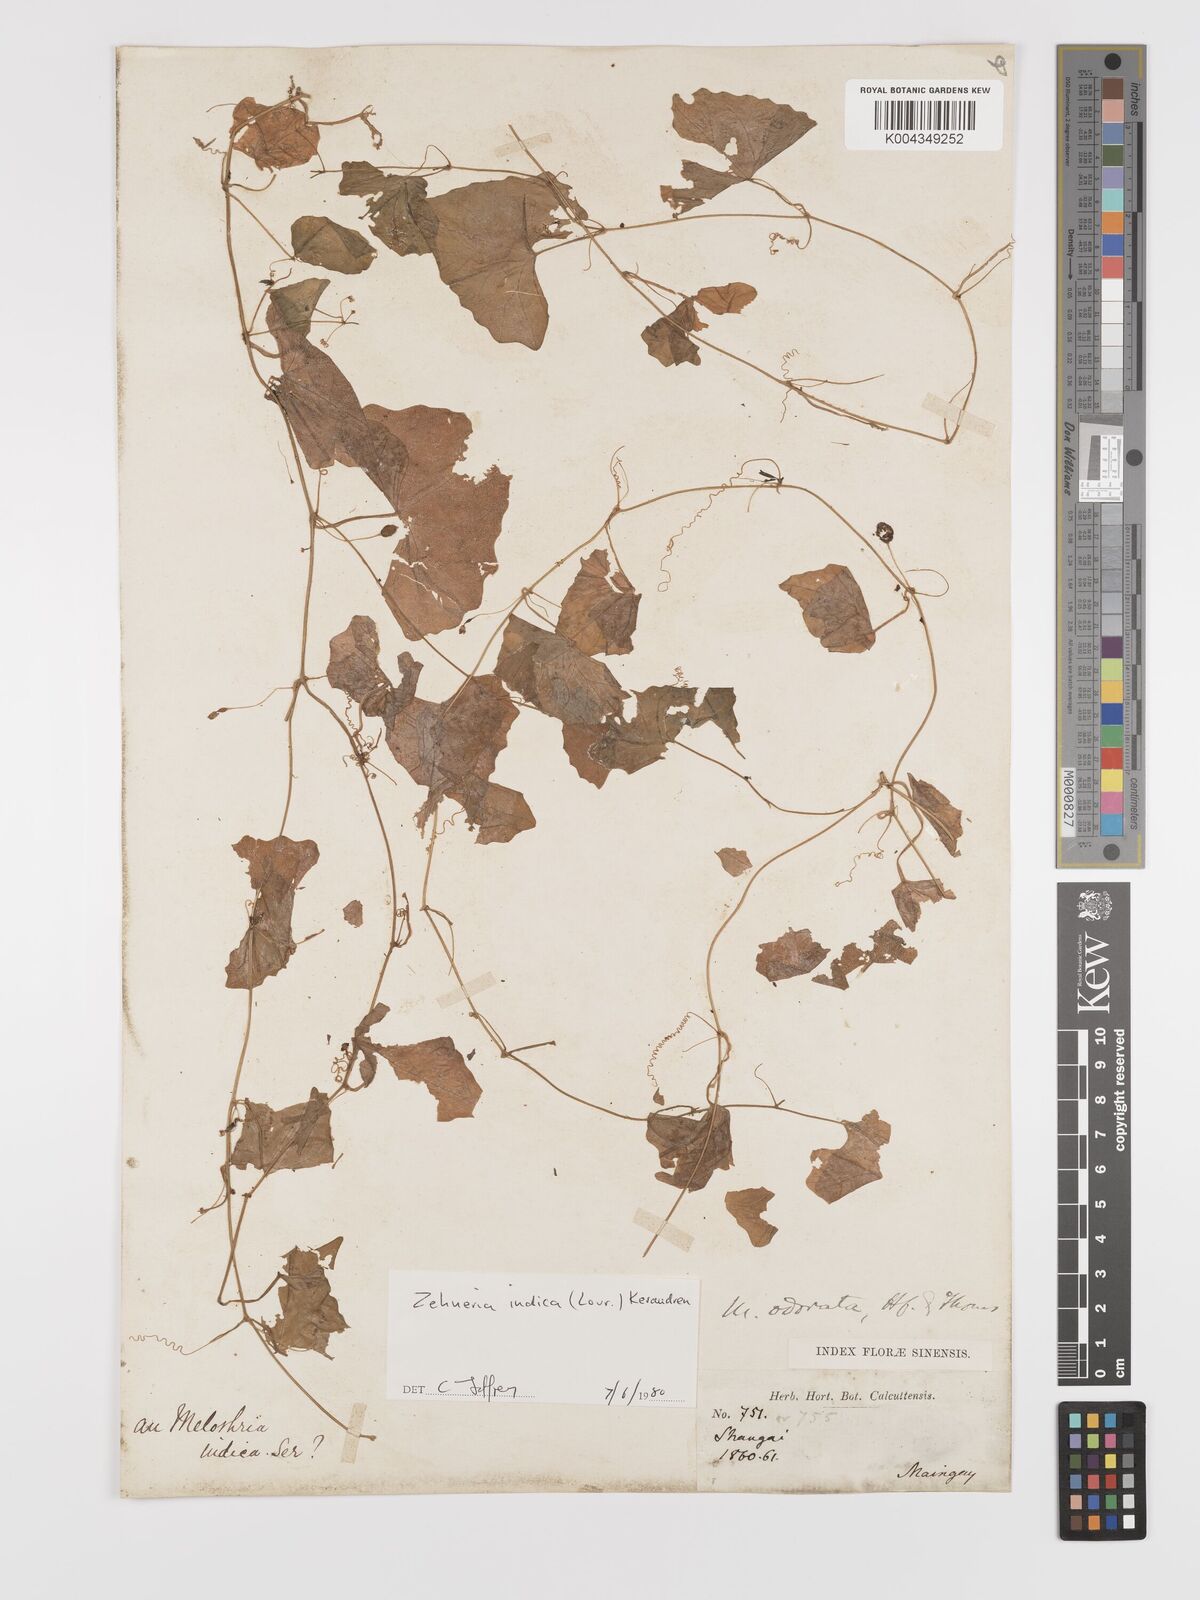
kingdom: Plantae
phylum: Tracheophyta
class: Magnoliopsida
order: Cucurbitales
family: Cucurbitaceae
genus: Zehneria
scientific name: Zehneria japonica
